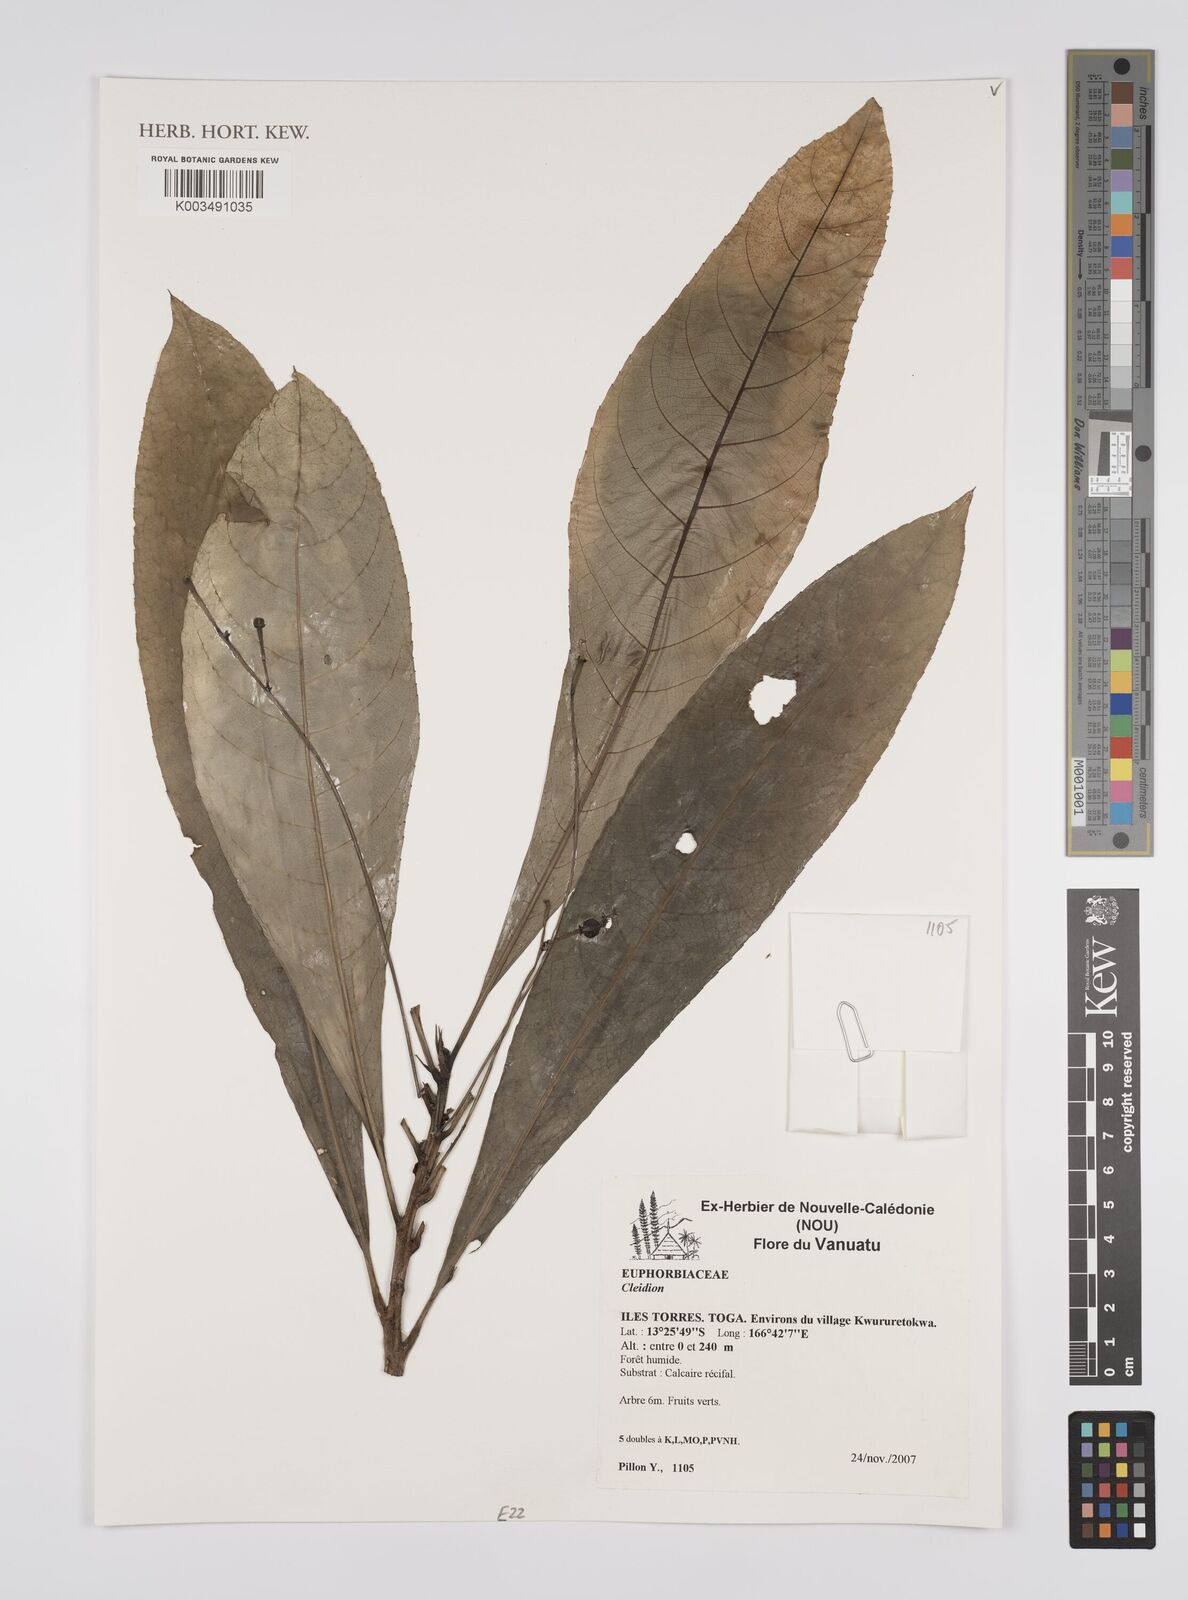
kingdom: Plantae
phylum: Tracheophyta
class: Magnoliopsida
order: Malpighiales
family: Euphorbiaceae
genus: Cleidion
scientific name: Cleidion
